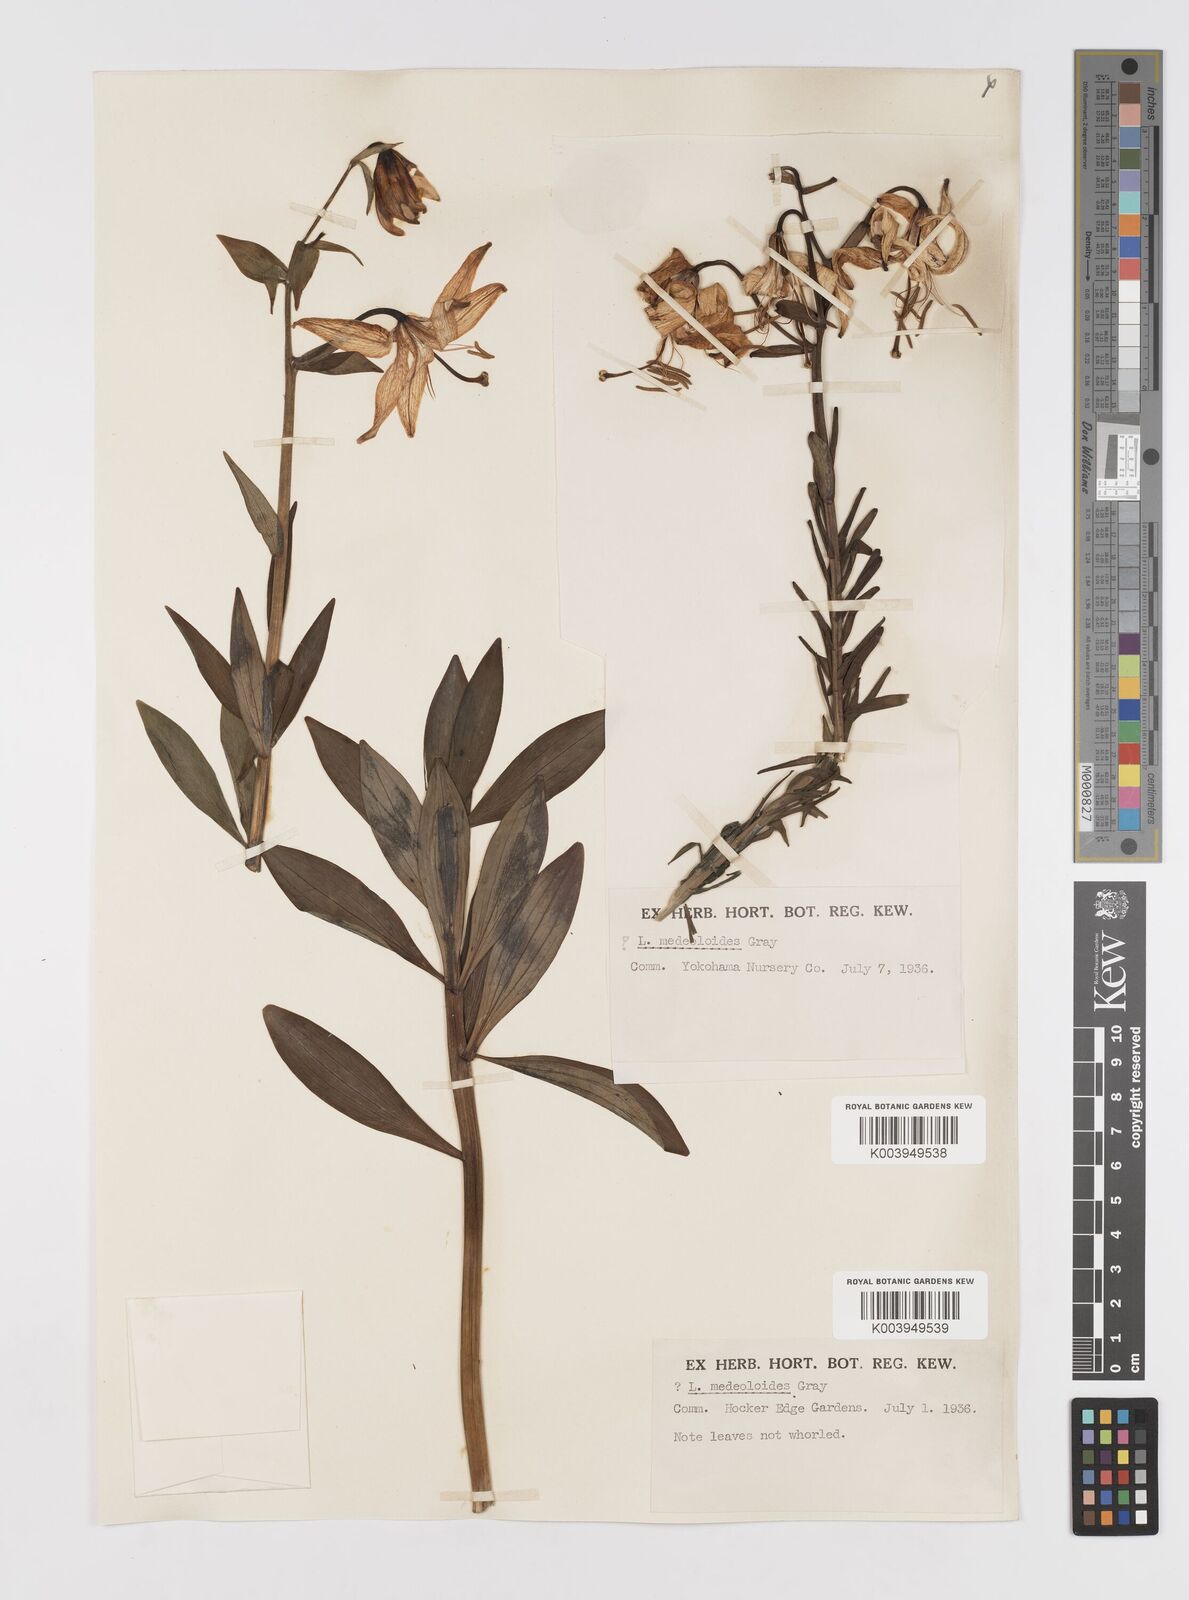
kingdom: Plantae
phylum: Tracheophyta
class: Liliopsida
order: Liliales
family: Liliaceae
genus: Lilium
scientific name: Lilium medeoloides
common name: Wheel lily
